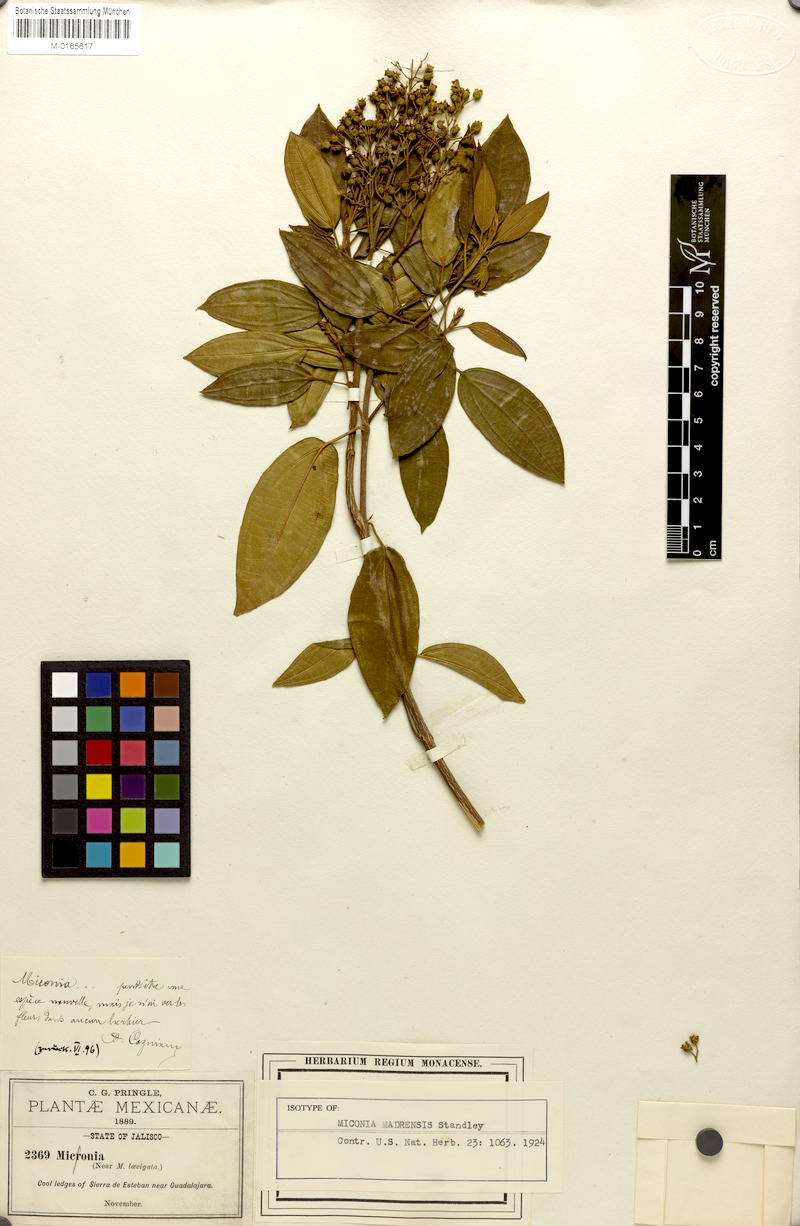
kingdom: Plantae
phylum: Tracheophyta
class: Magnoliopsida
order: Myrtales
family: Melastomataceae
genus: Miconia
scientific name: Miconia madrensis
